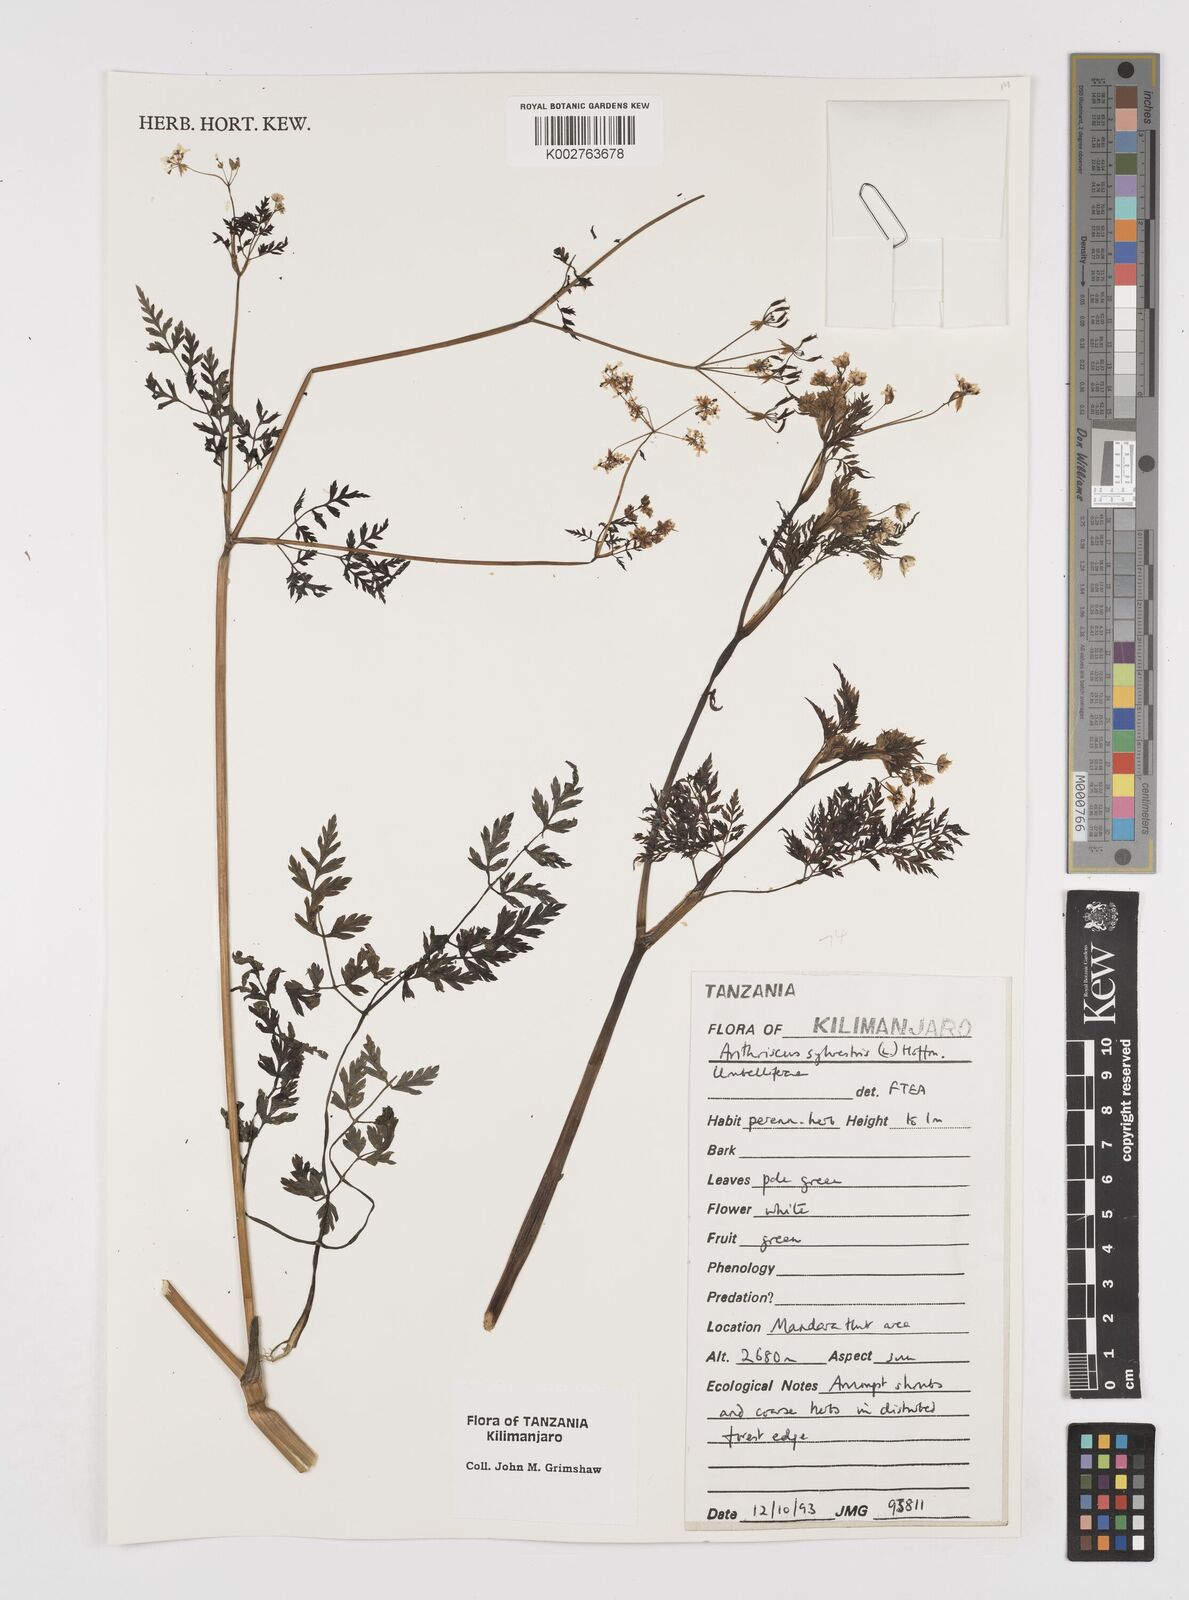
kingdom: Plantae
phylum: Tracheophyta
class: Magnoliopsida
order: Apiales
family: Apiaceae
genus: Anthriscus
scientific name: Anthriscus sylvestris
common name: Cow parsley
